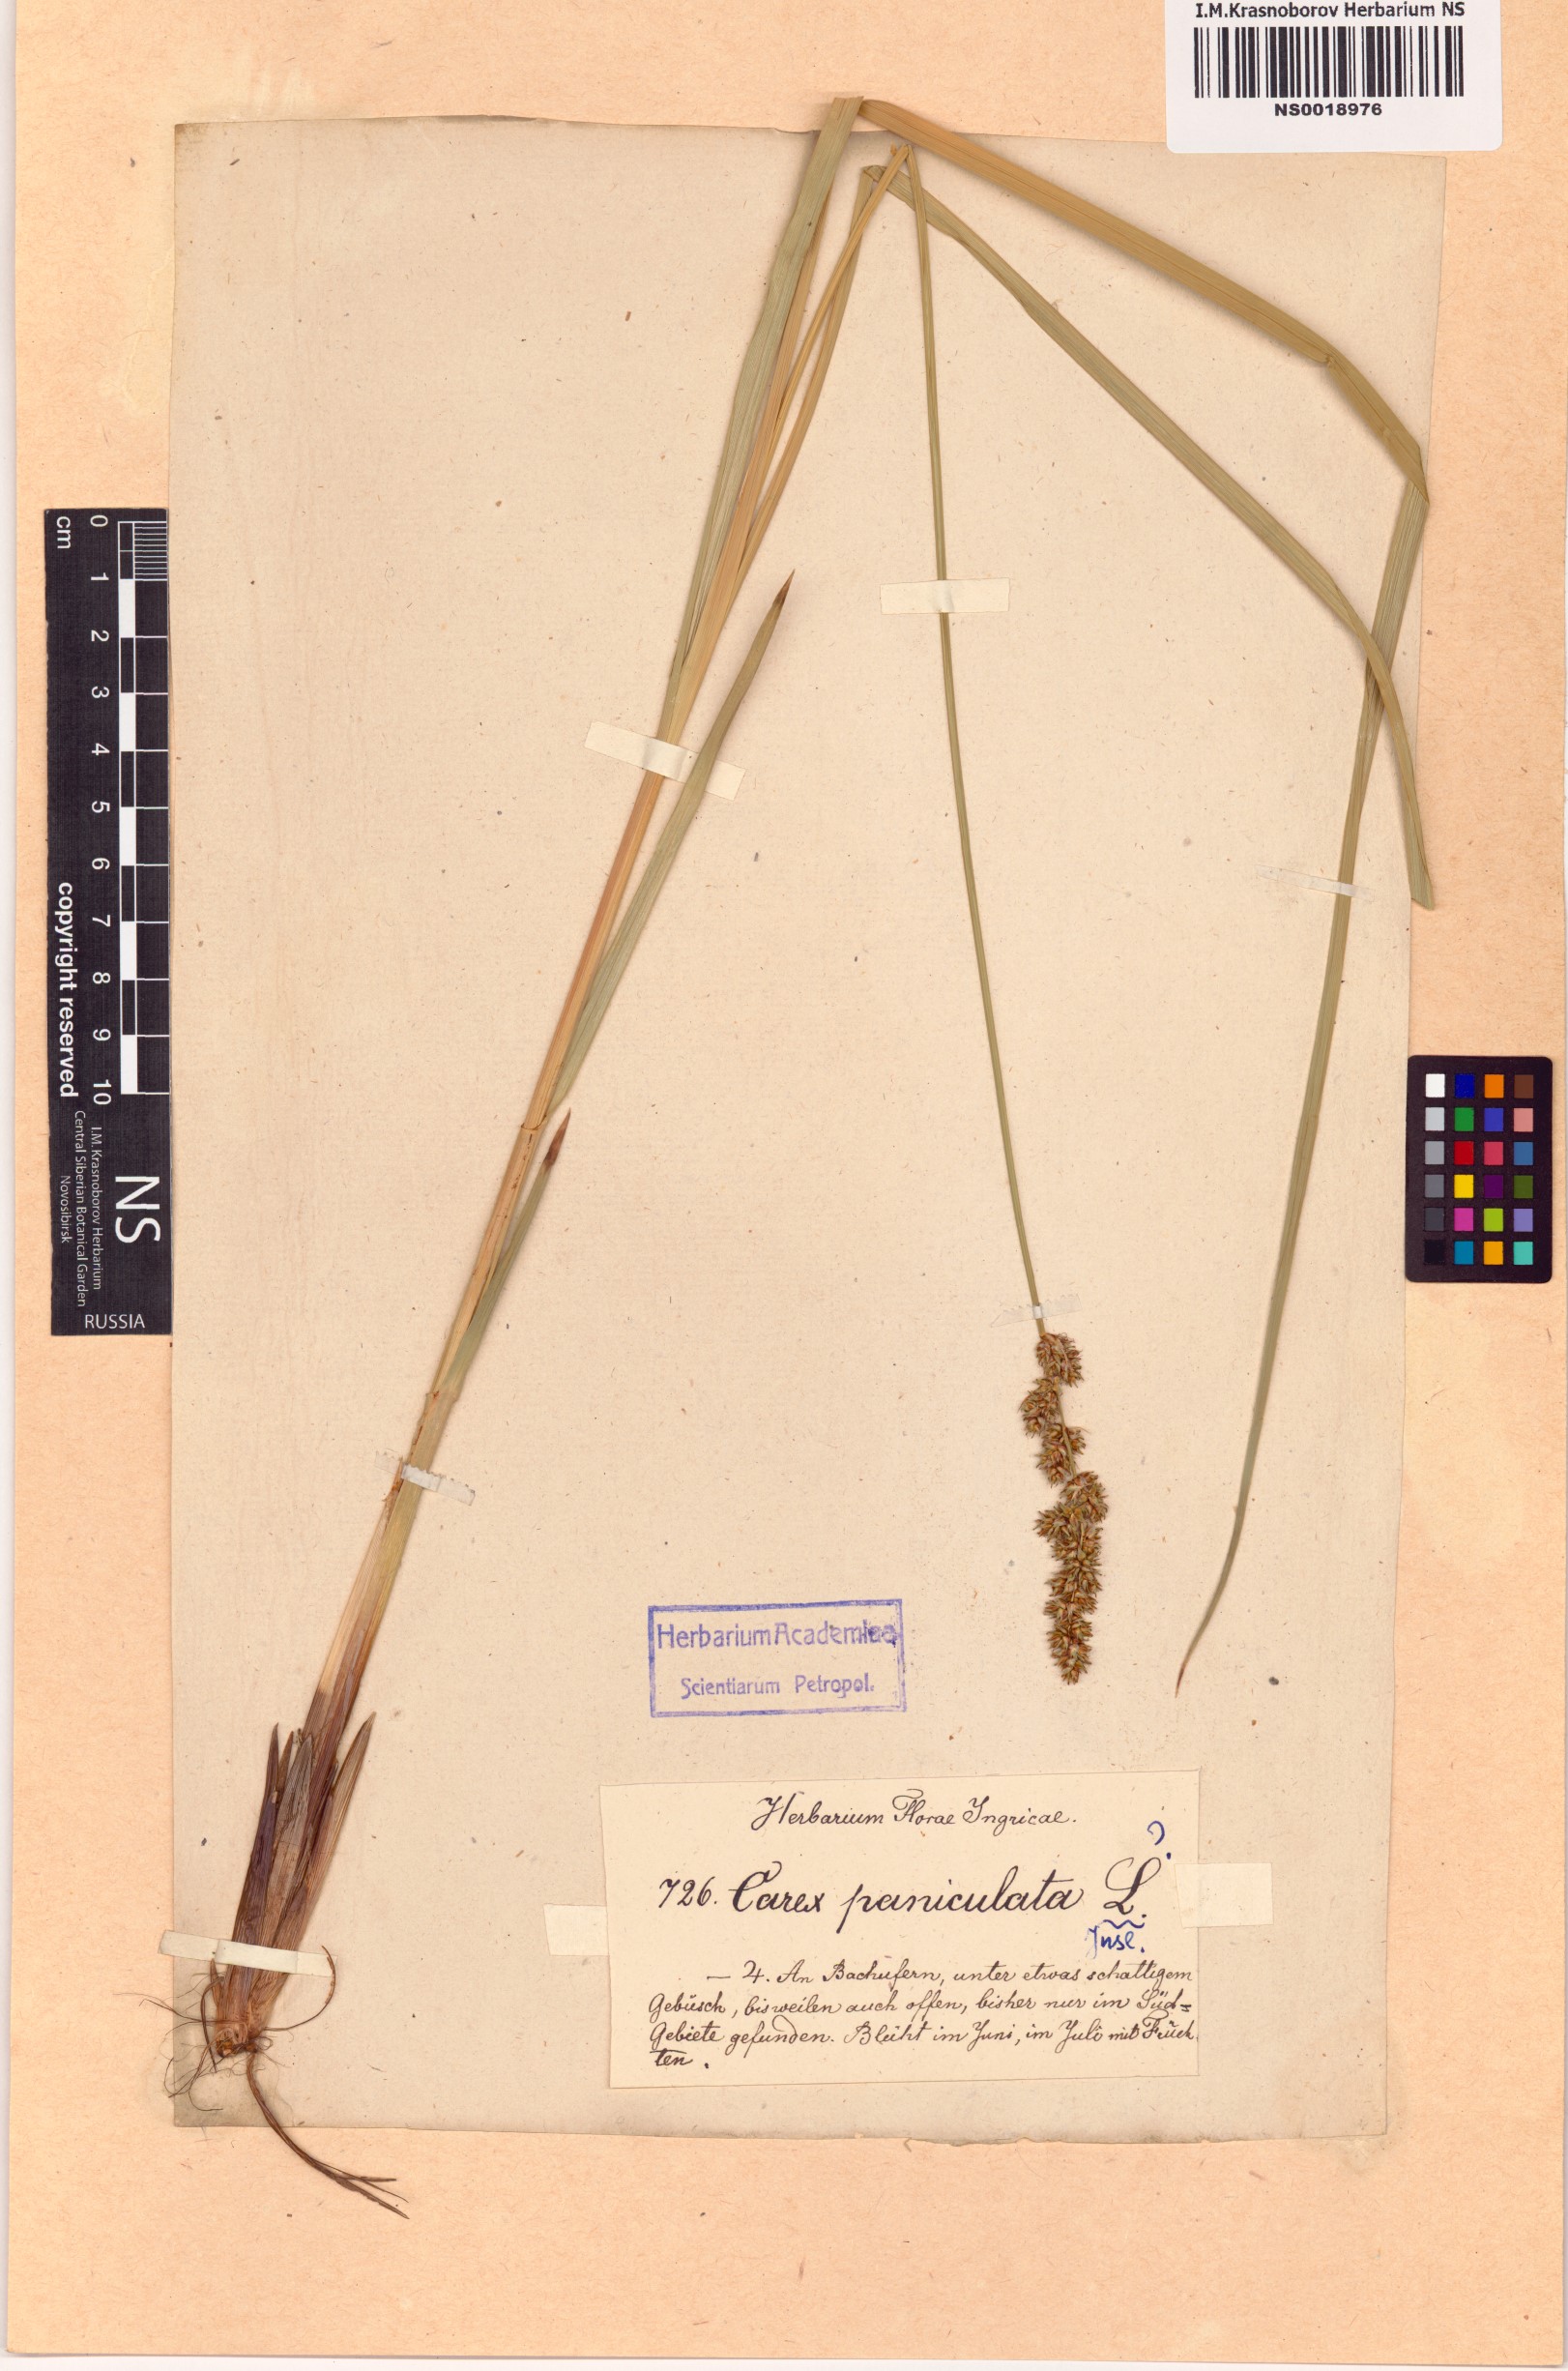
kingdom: Plantae
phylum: Tracheophyta
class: Liliopsida
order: Poales
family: Cyperaceae
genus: Carex
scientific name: Carex paniculata
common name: Greater tussock-sedge
